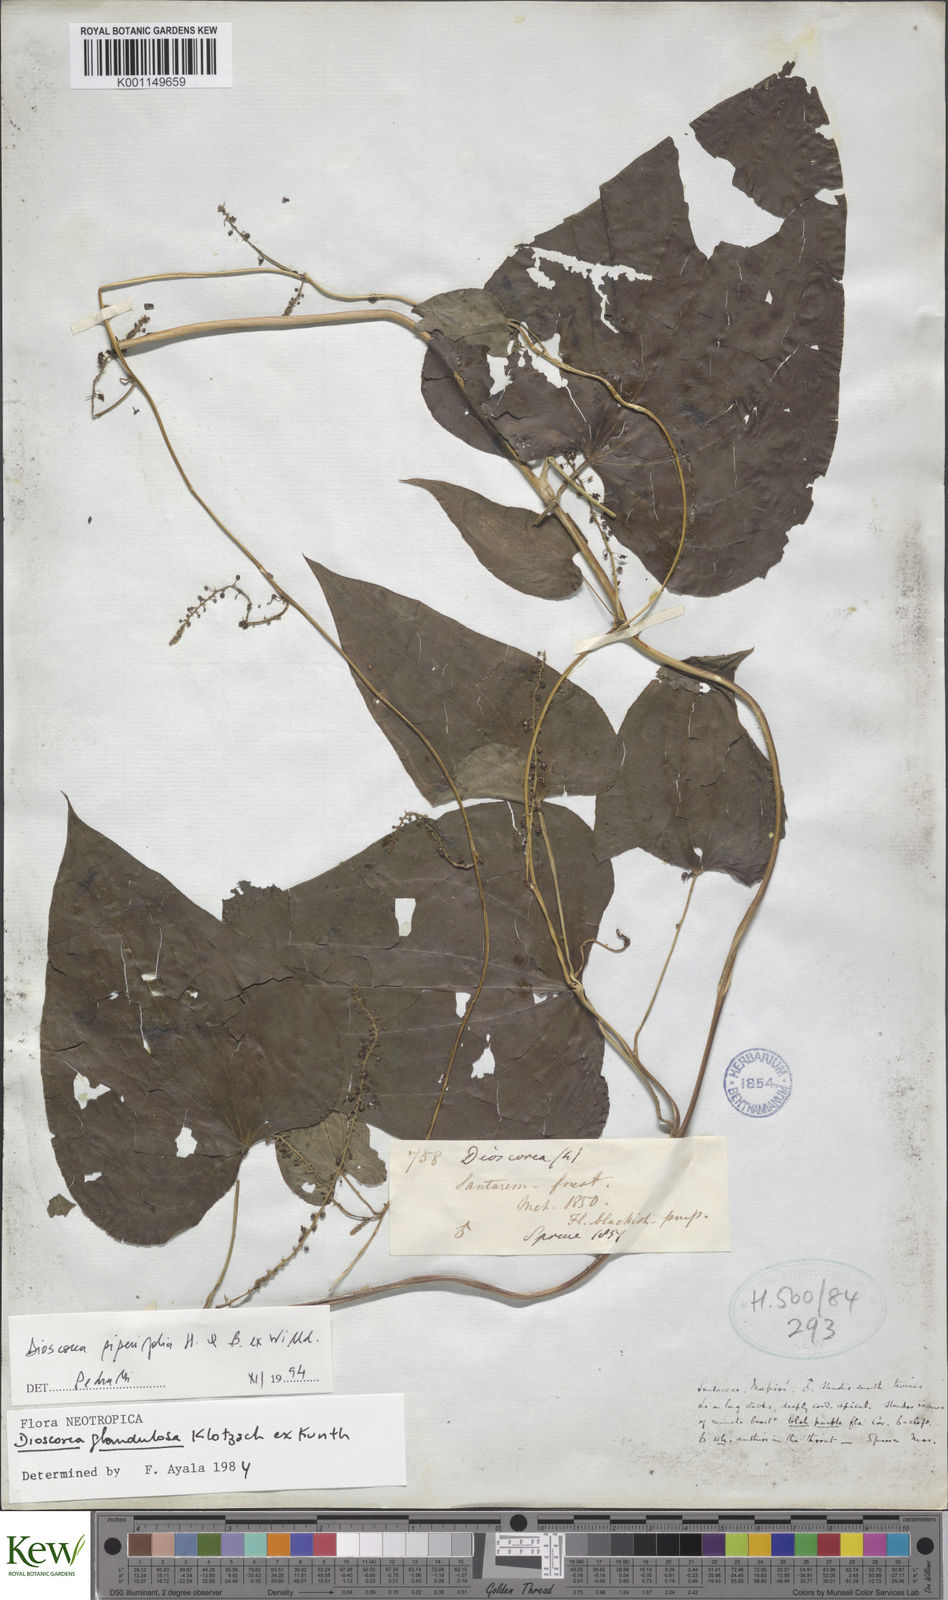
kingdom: Plantae
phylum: Tracheophyta
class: Liliopsida
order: Dioscoreales
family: Dioscoreaceae
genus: Dioscorea
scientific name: Dioscorea glandulosa
